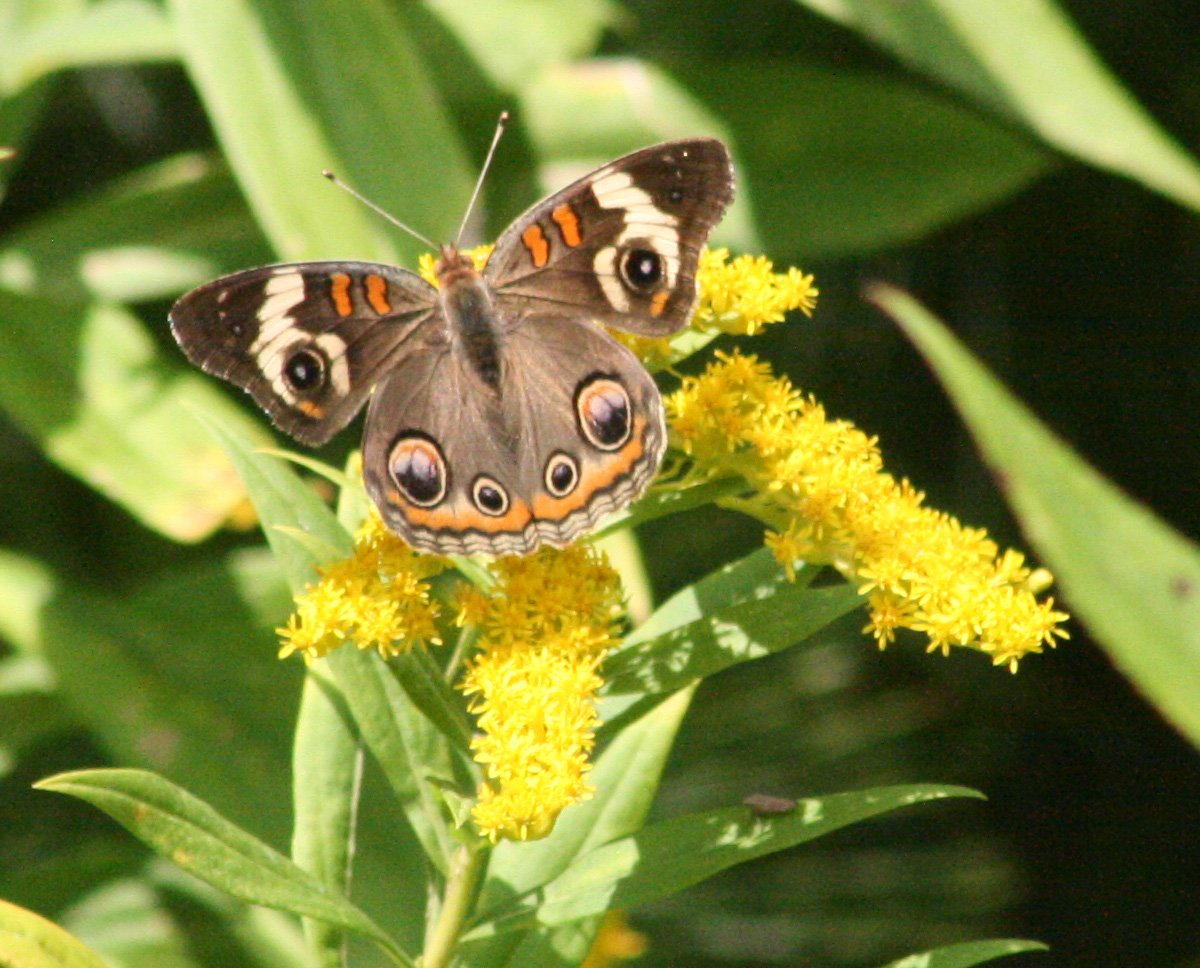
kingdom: Animalia
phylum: Arthropoda
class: Insecta
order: Lepidoptera
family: Nymphalidae
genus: Junonia
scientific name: Junonia coenia
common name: Common Buckeye
